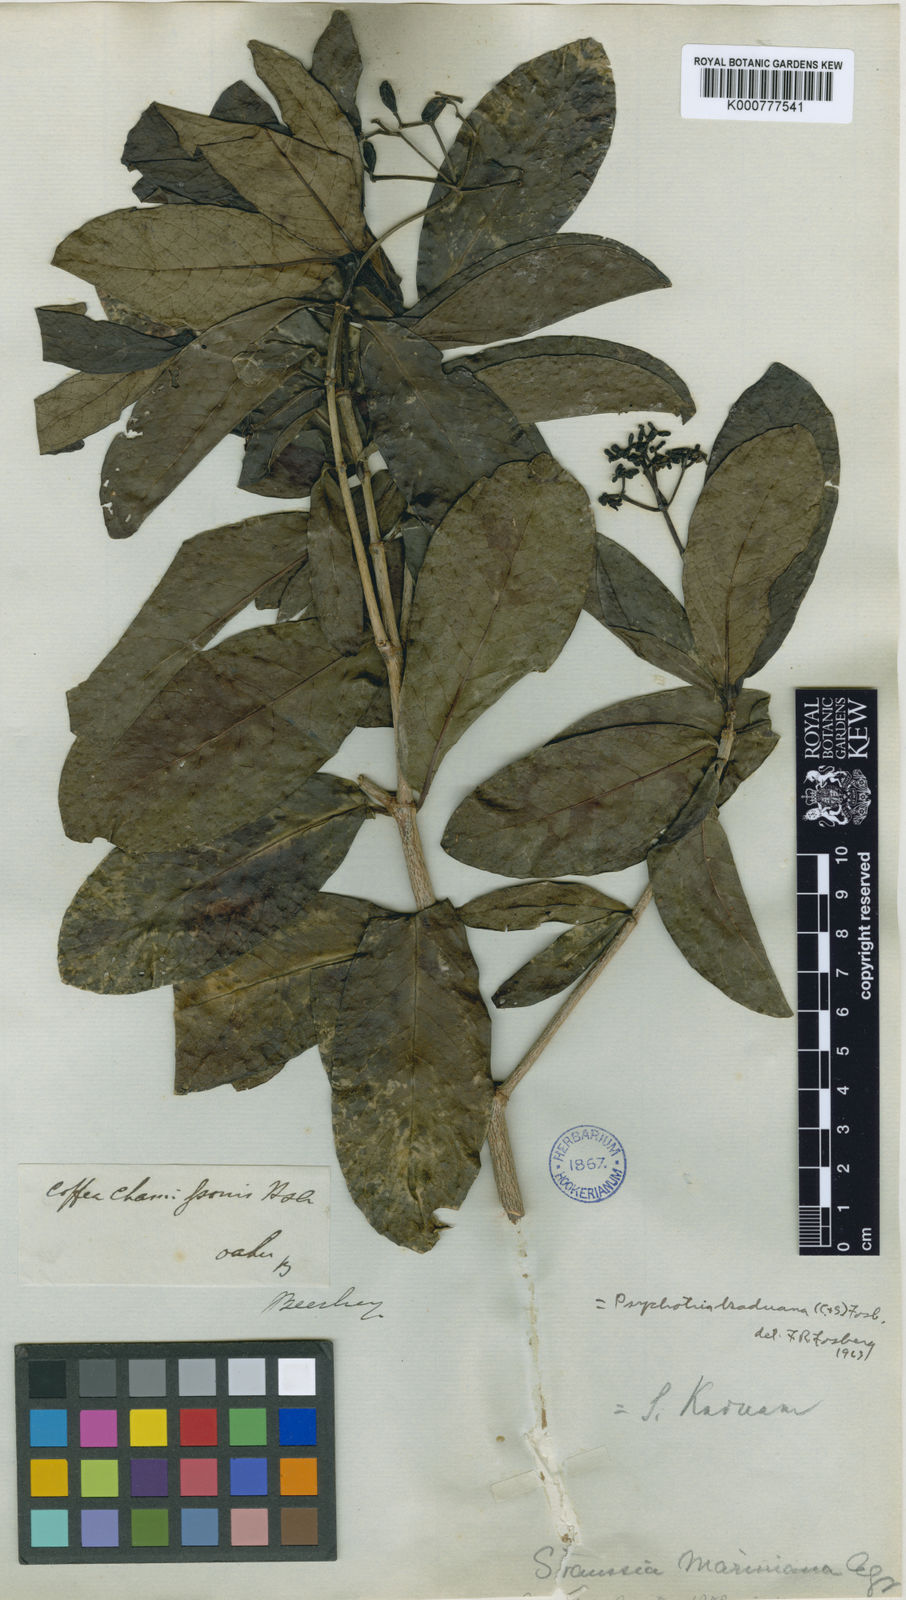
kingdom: Plantae
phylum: Tracheophyta
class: Magnoliopsida
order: Gentianales
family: Rubiaceae
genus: Psychotria
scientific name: Psychotria kaduana
